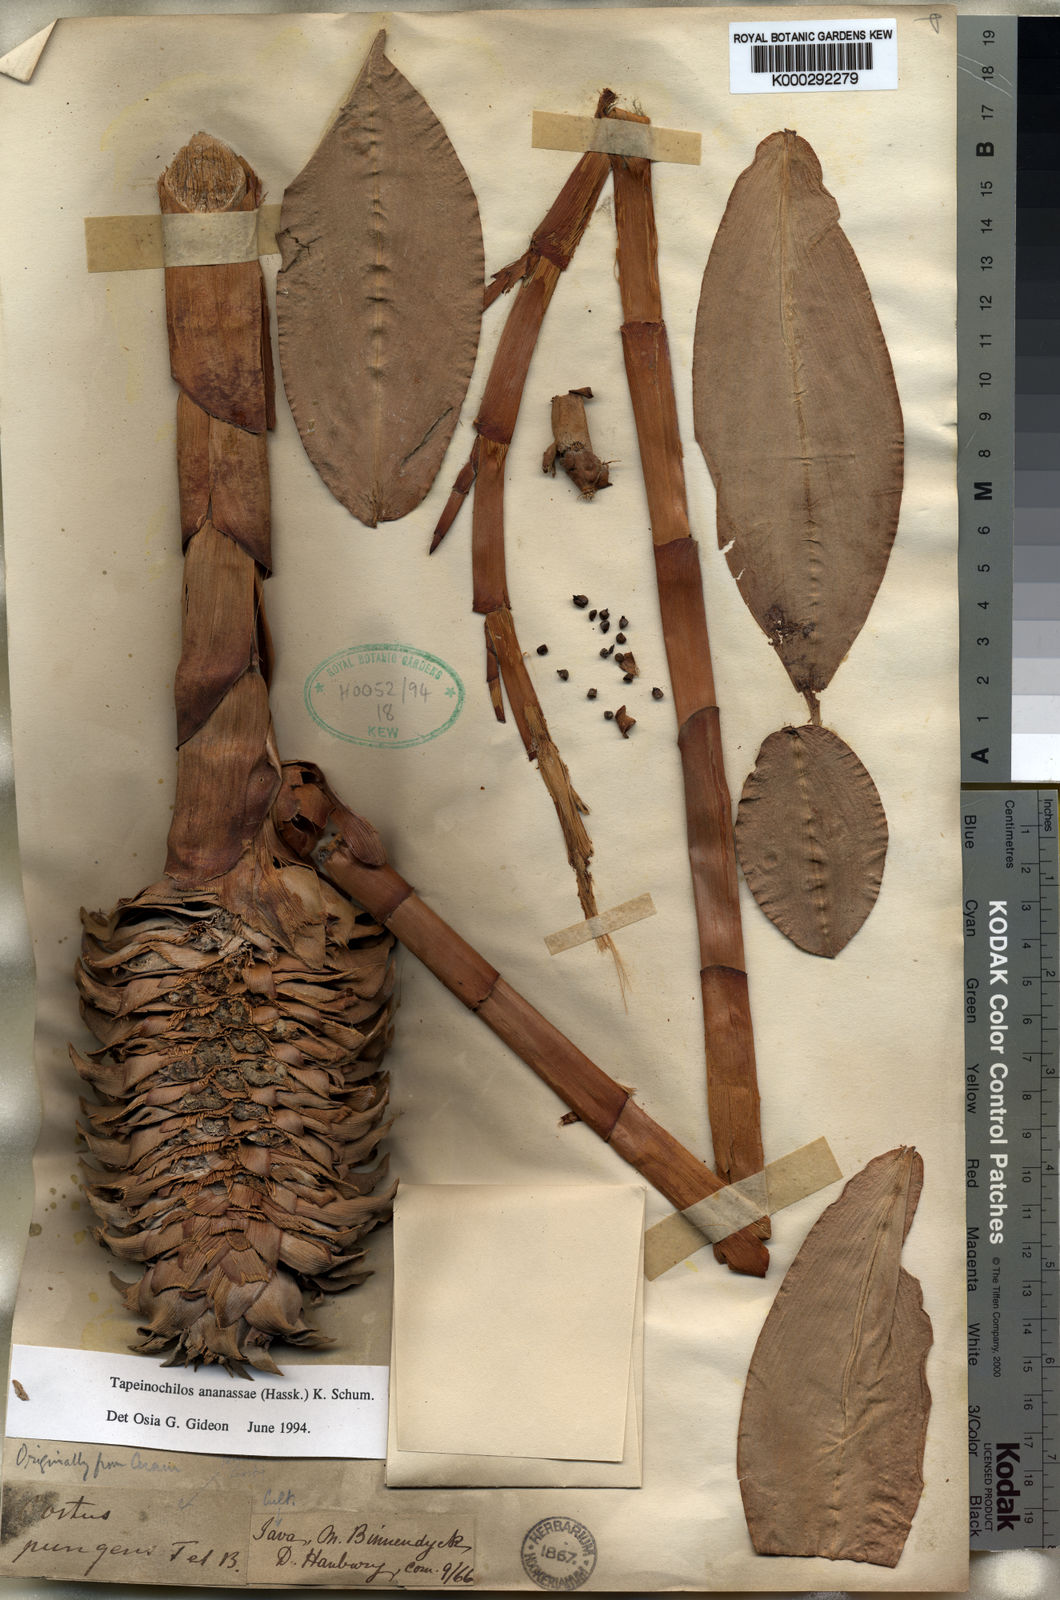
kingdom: Plantae
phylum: Tracheophyta
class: Liliopsida
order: Zingiberales
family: Costaceae
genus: Tapeinochilos
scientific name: Tapeinochilos ananassae
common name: Torch-ginger
